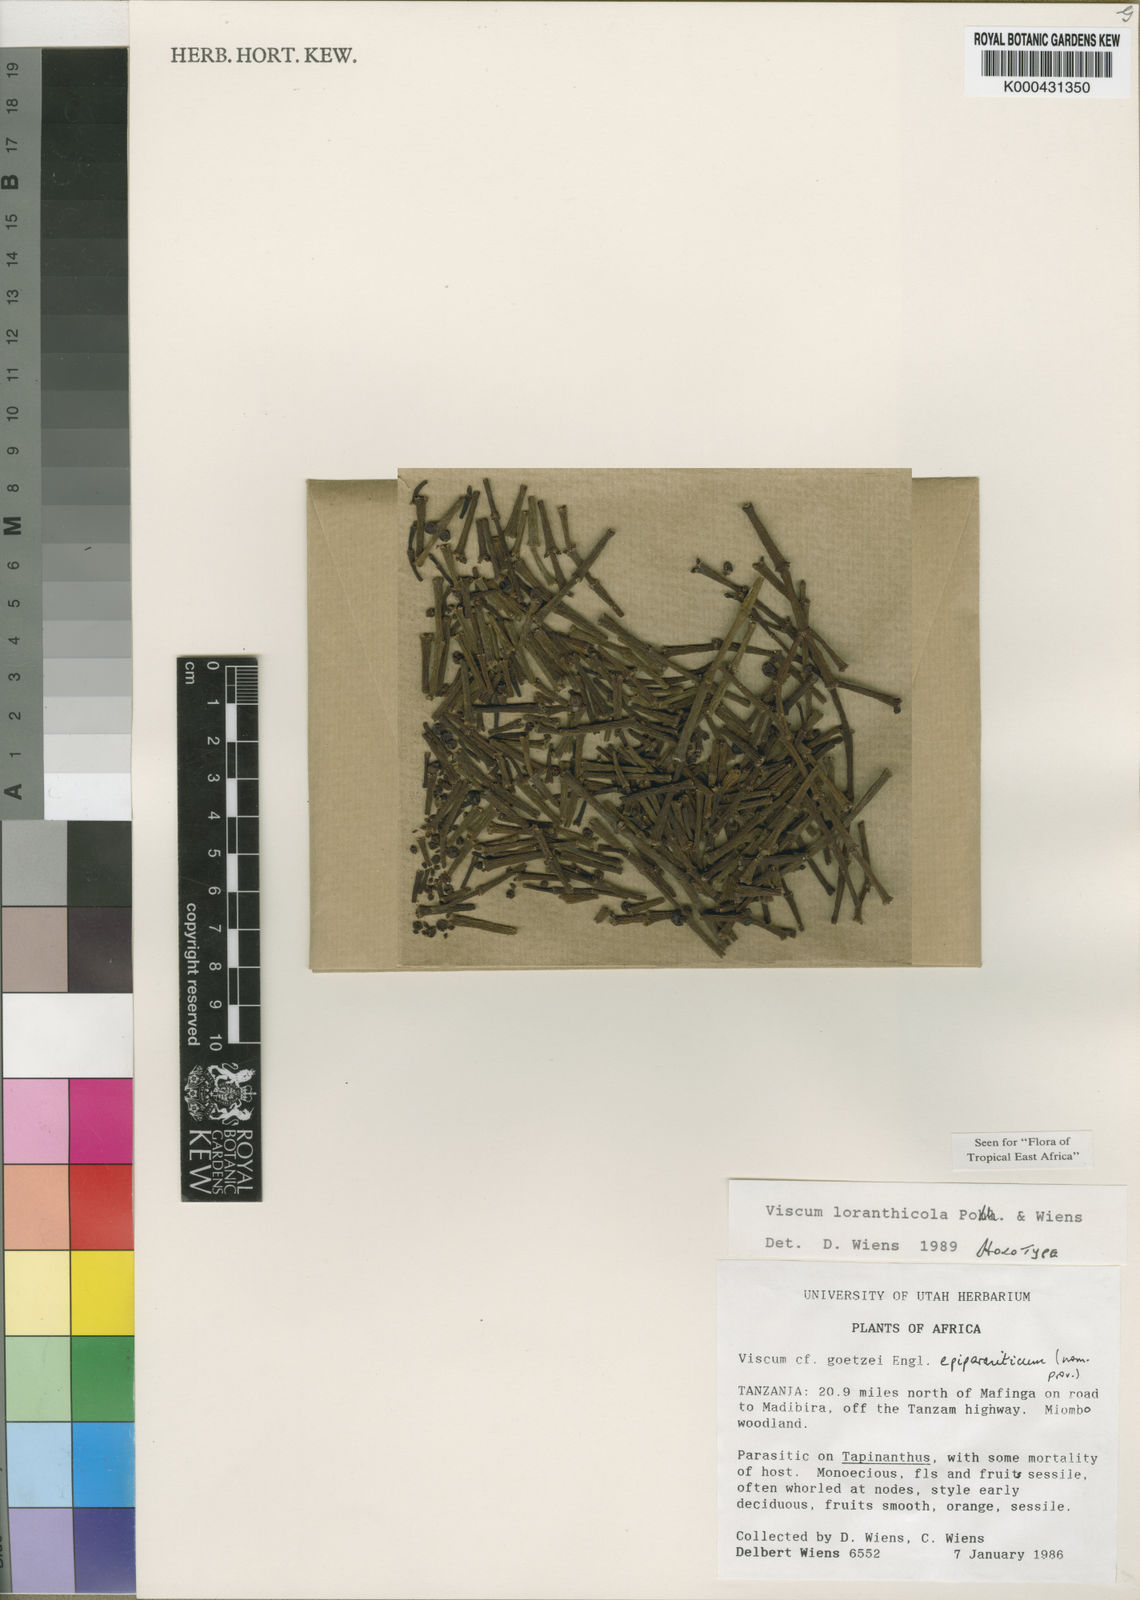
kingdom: Plantae
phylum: Tracheophyta
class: Magnoliopsida
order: Santalales
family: Viscaceae
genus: Viscum
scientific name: Viscum loranthicola
